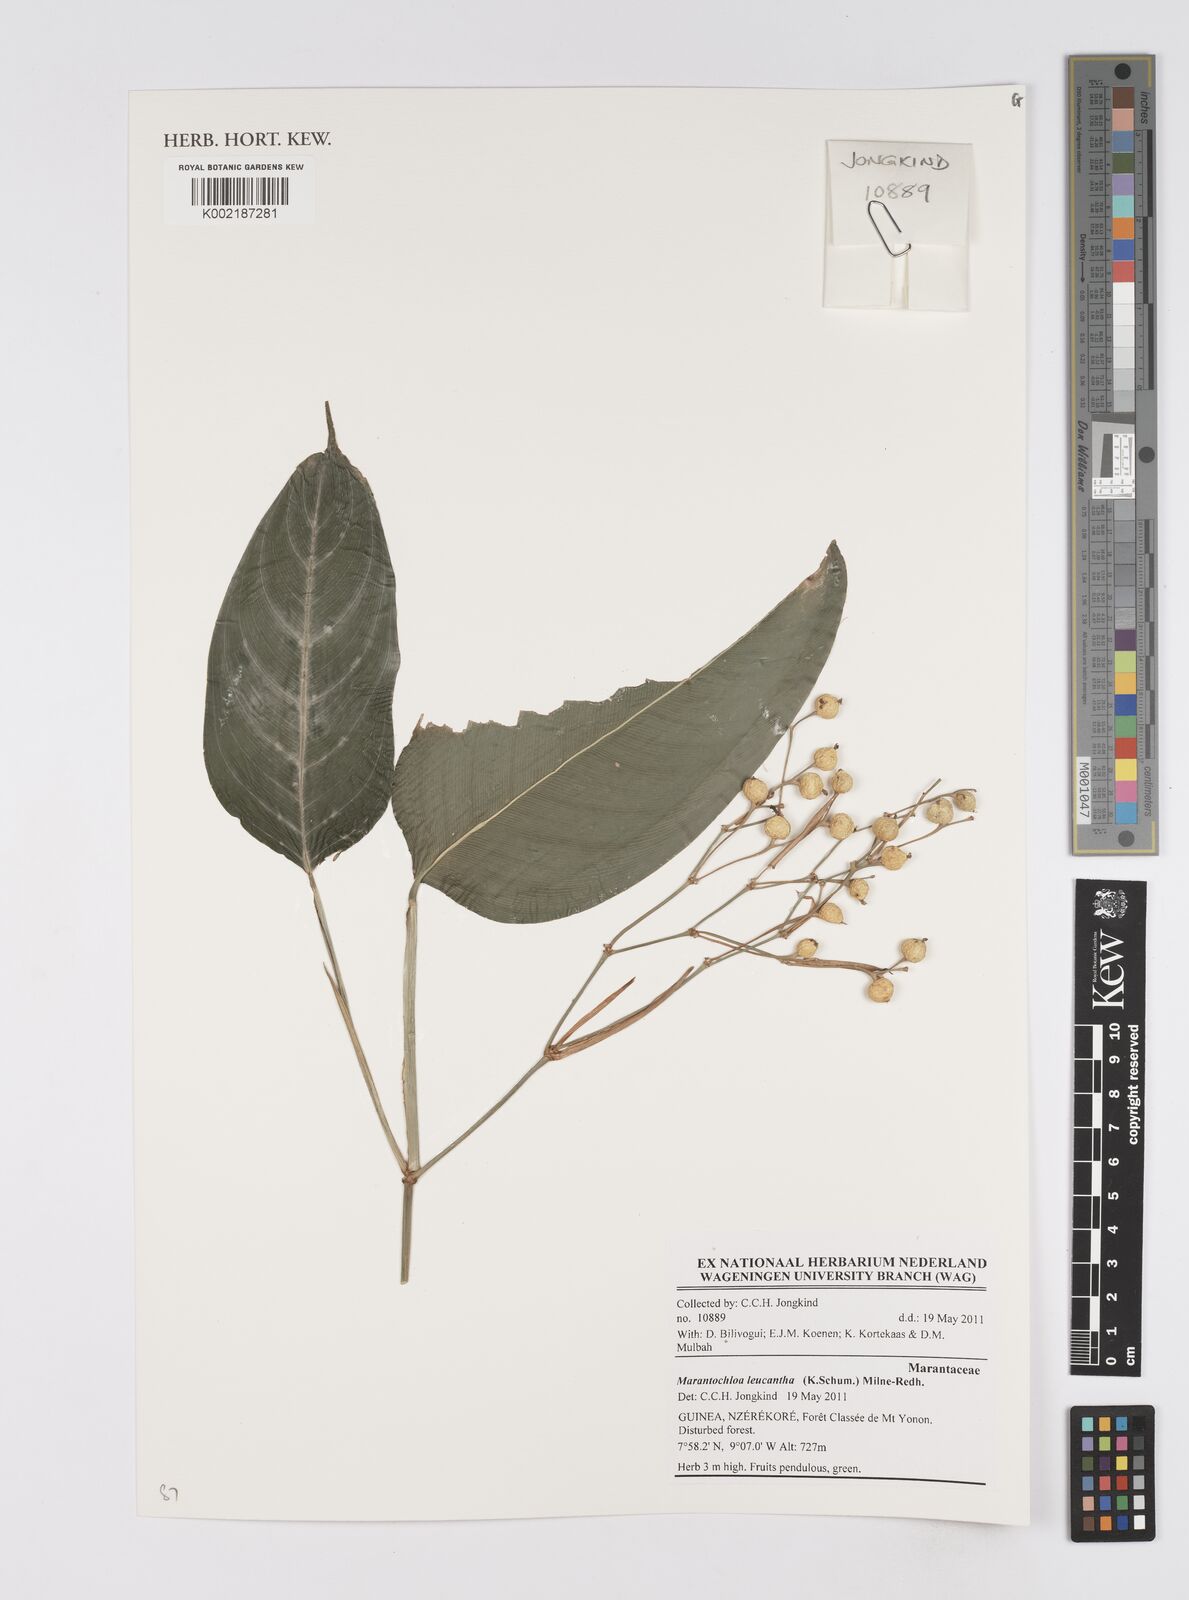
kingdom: Plantae
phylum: Tracheophyta
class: Liliopsida
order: Zingiberales
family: Marantaceae
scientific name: Marantaceae
